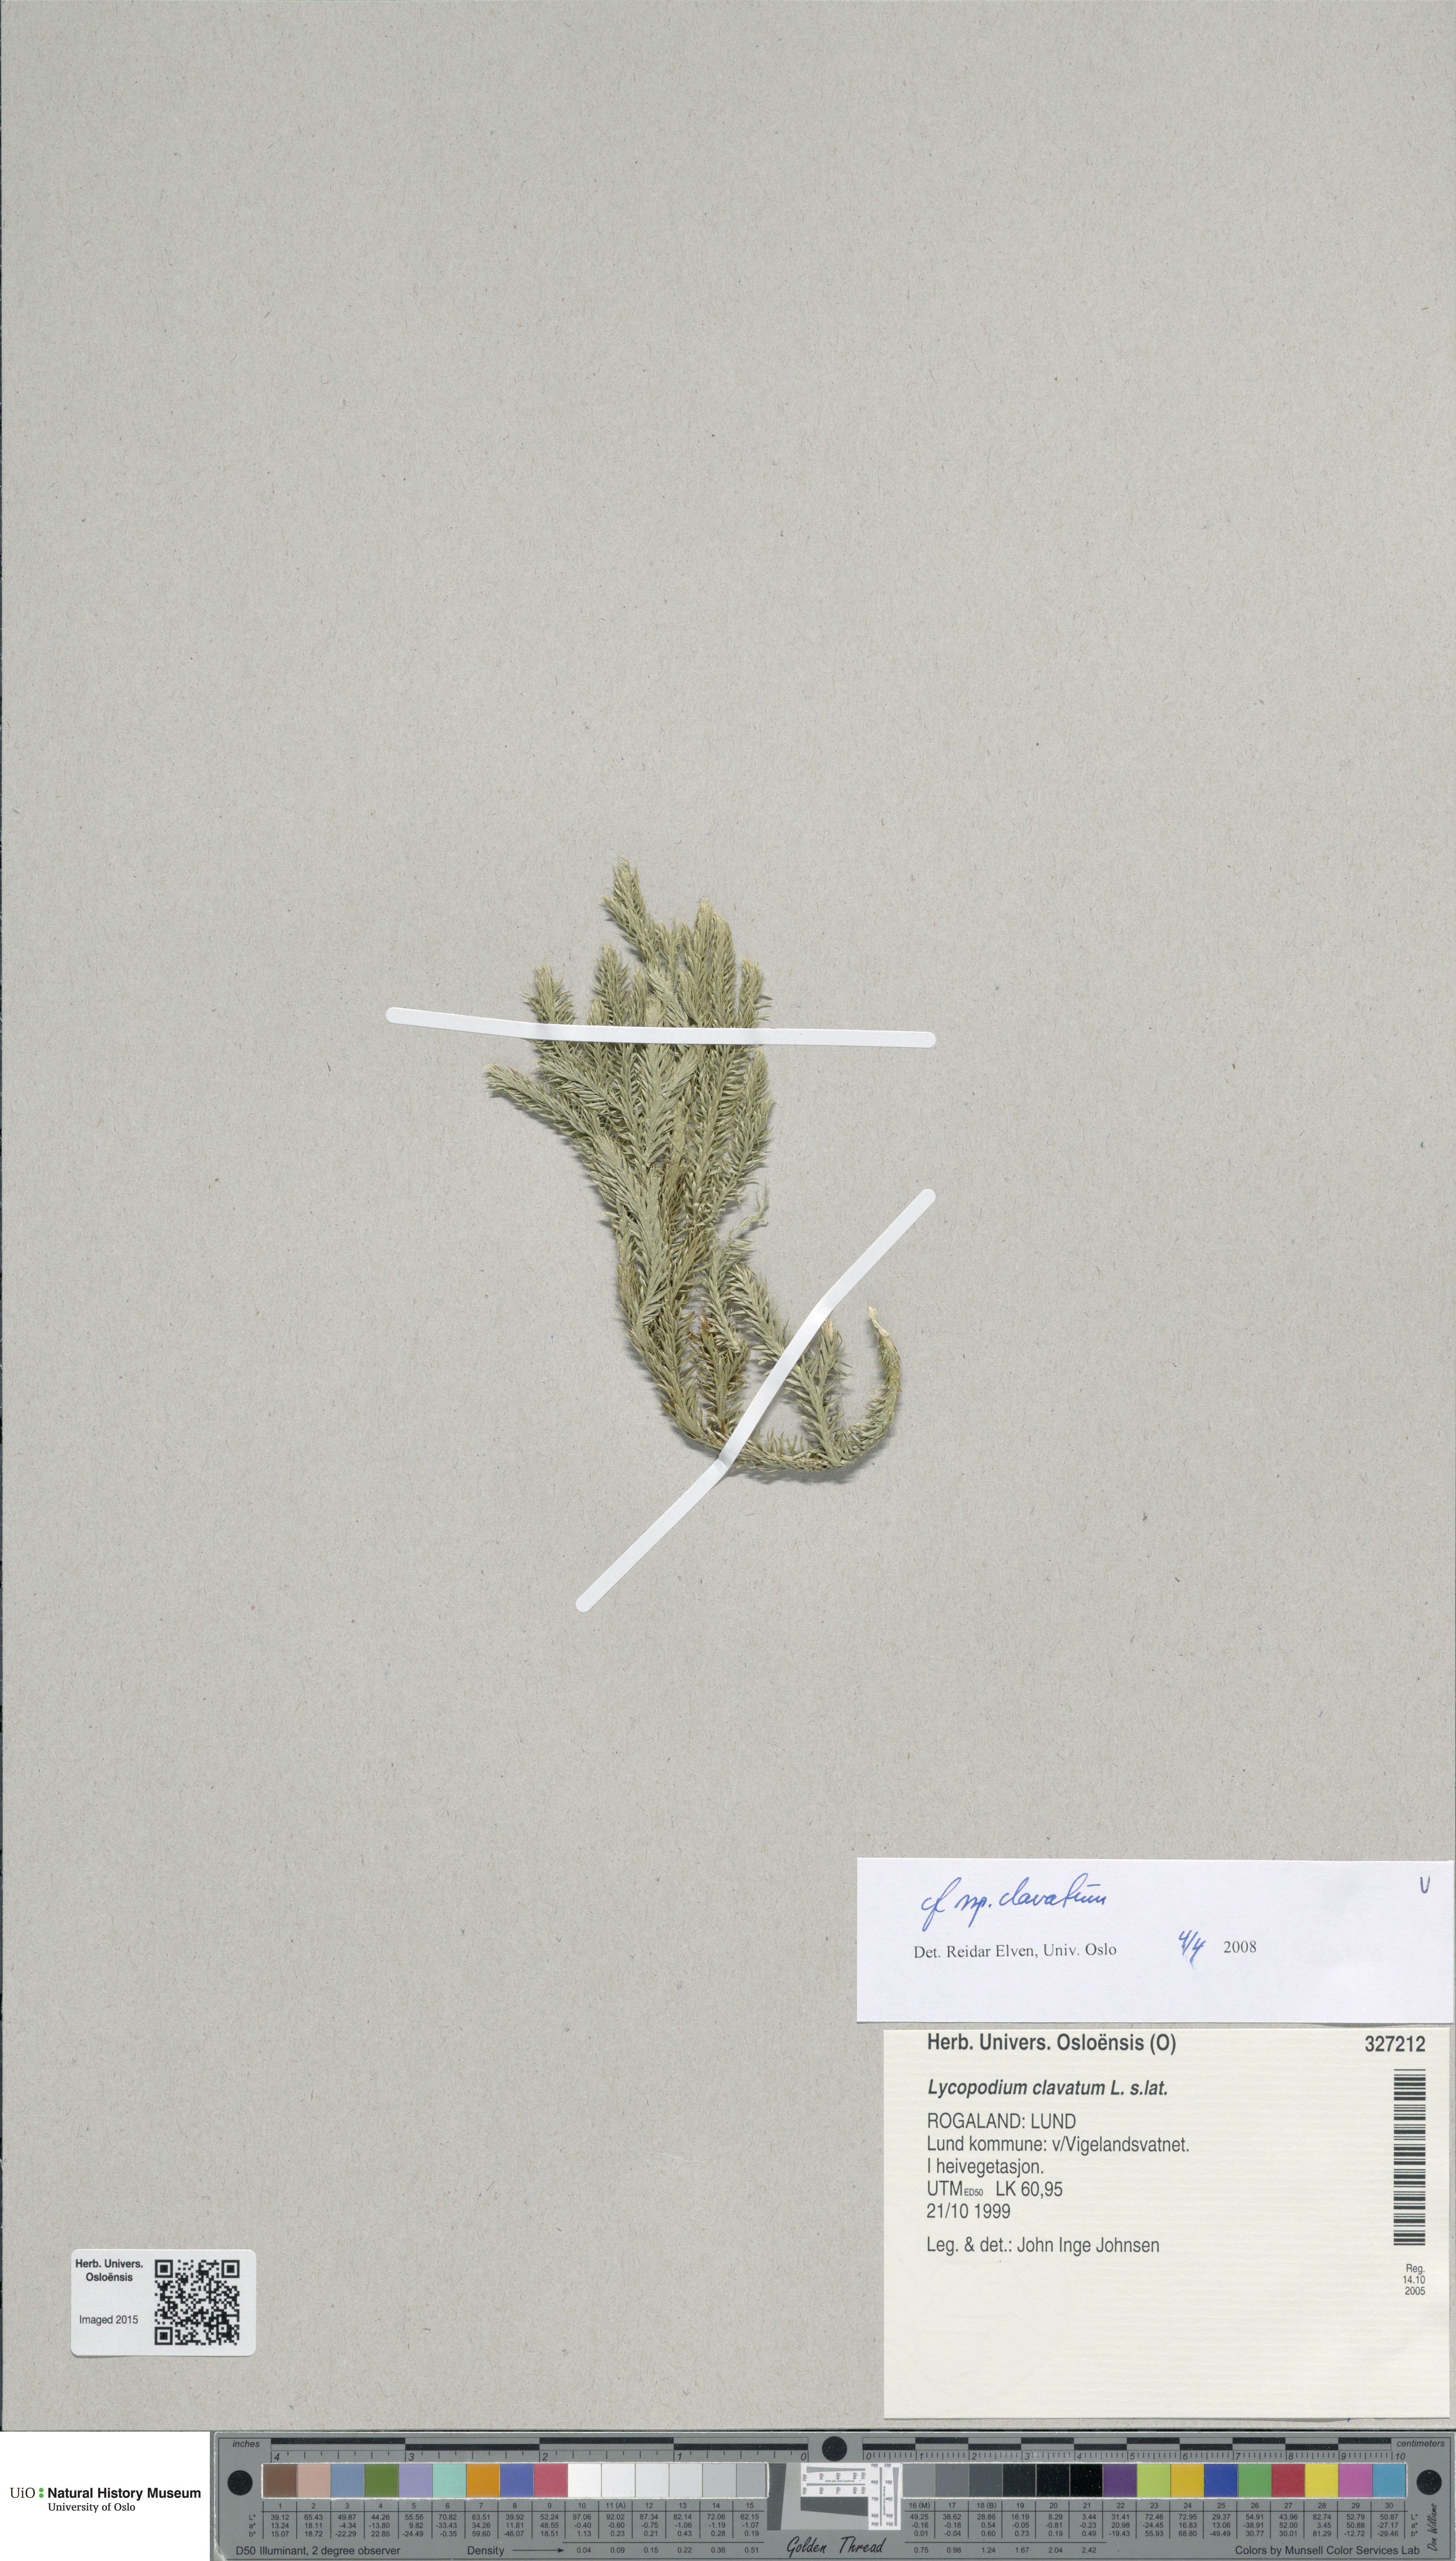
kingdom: Plantae
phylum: Tracheophyta
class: Lycopodiopsida
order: Lycopodiales
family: Lycopodiaceae
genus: Lycopodium
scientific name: Lycopodium clavatum
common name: Stag's-horn clubmoss
